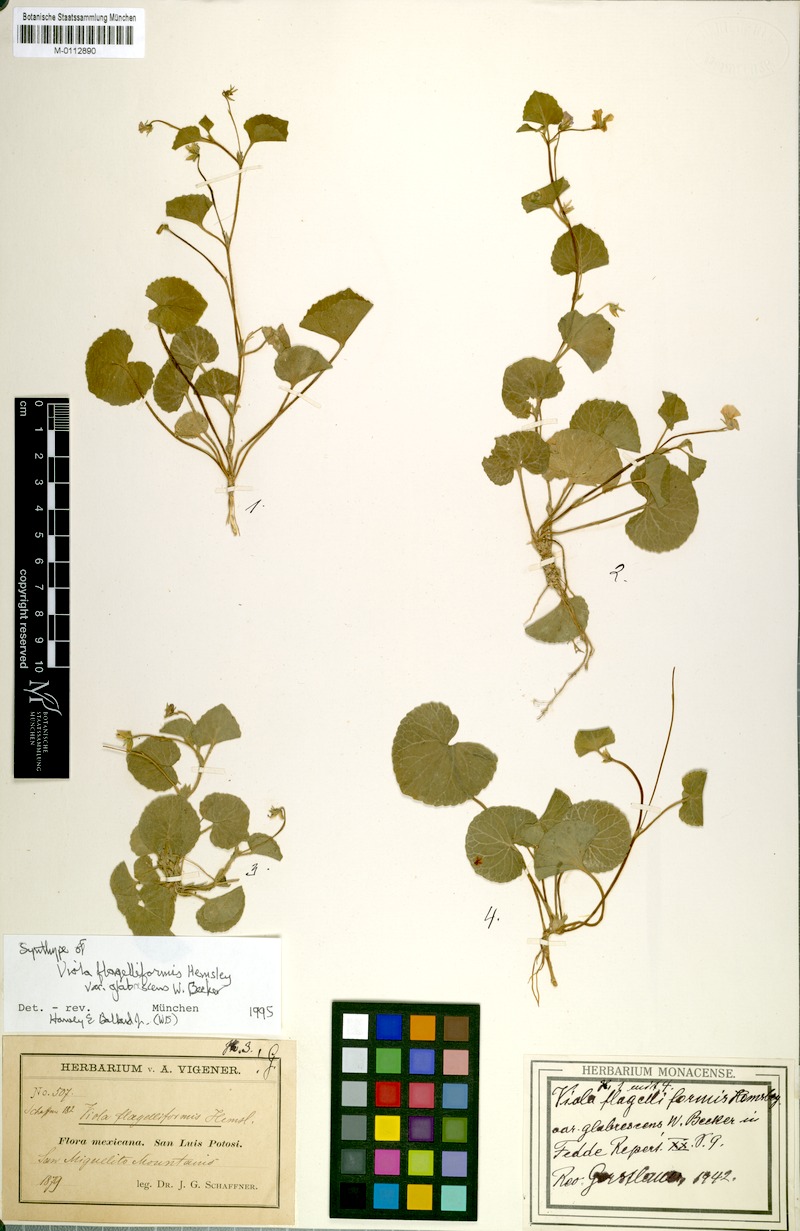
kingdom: Plantae
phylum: Tracheophyta
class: Magnoliopsida
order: Malpighiales
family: Violaceae
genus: Viola
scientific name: Viola flagelliformis
